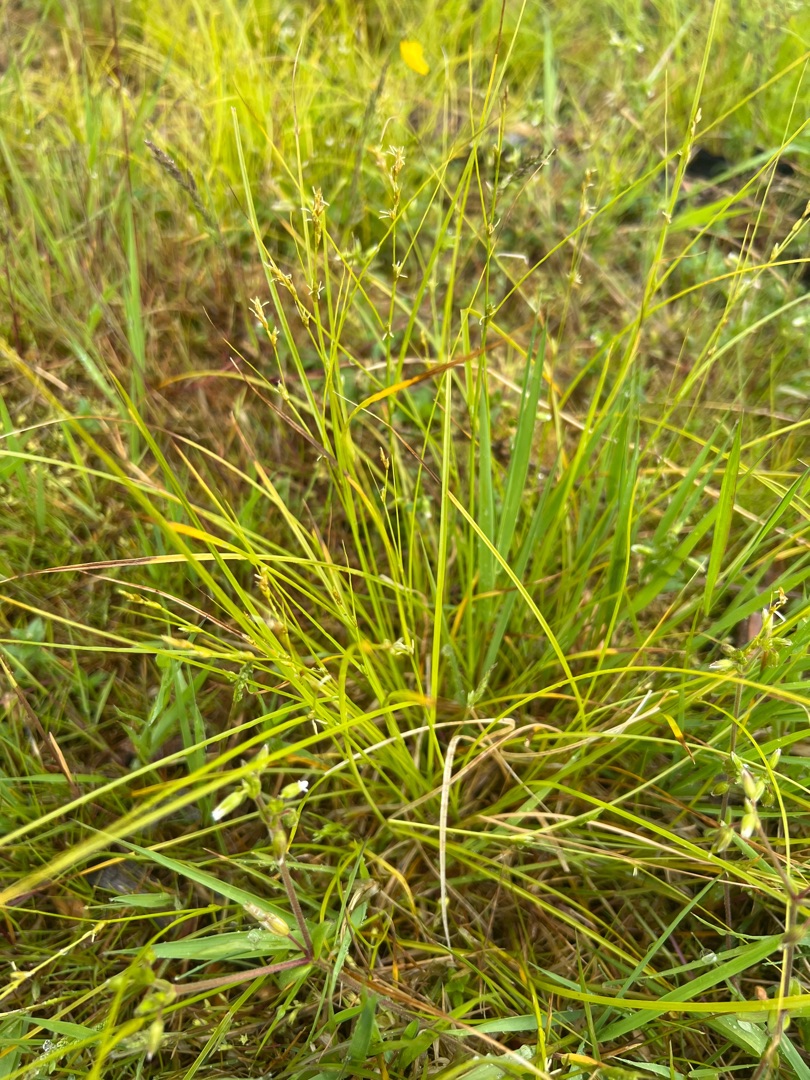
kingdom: Plantae
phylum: Tracheophyta
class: Liliopsida
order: Poales
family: Cyperaceae
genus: Carex
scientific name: Carex remota
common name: Akselblomstret star
